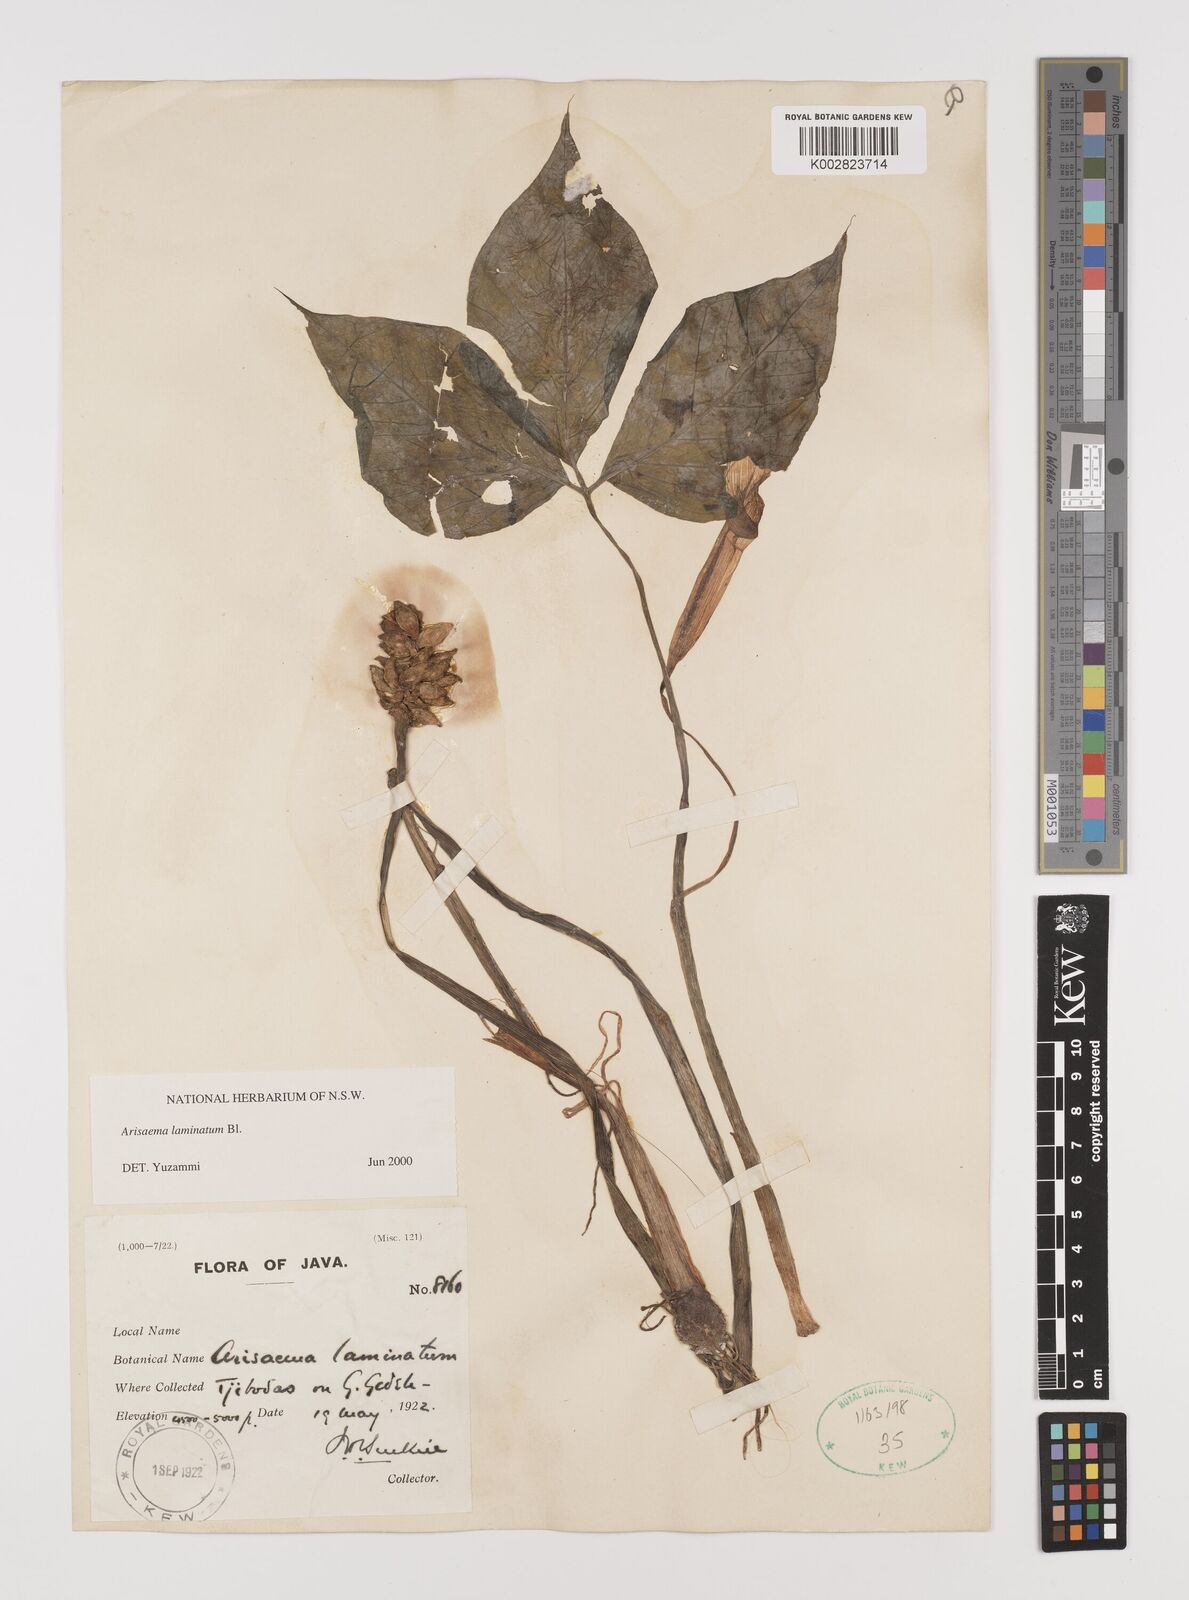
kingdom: Plantae
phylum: Tracheophyta
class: Liliopsida
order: Alismatales
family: Araceae
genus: Arisaema
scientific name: Arisaema laminatum
